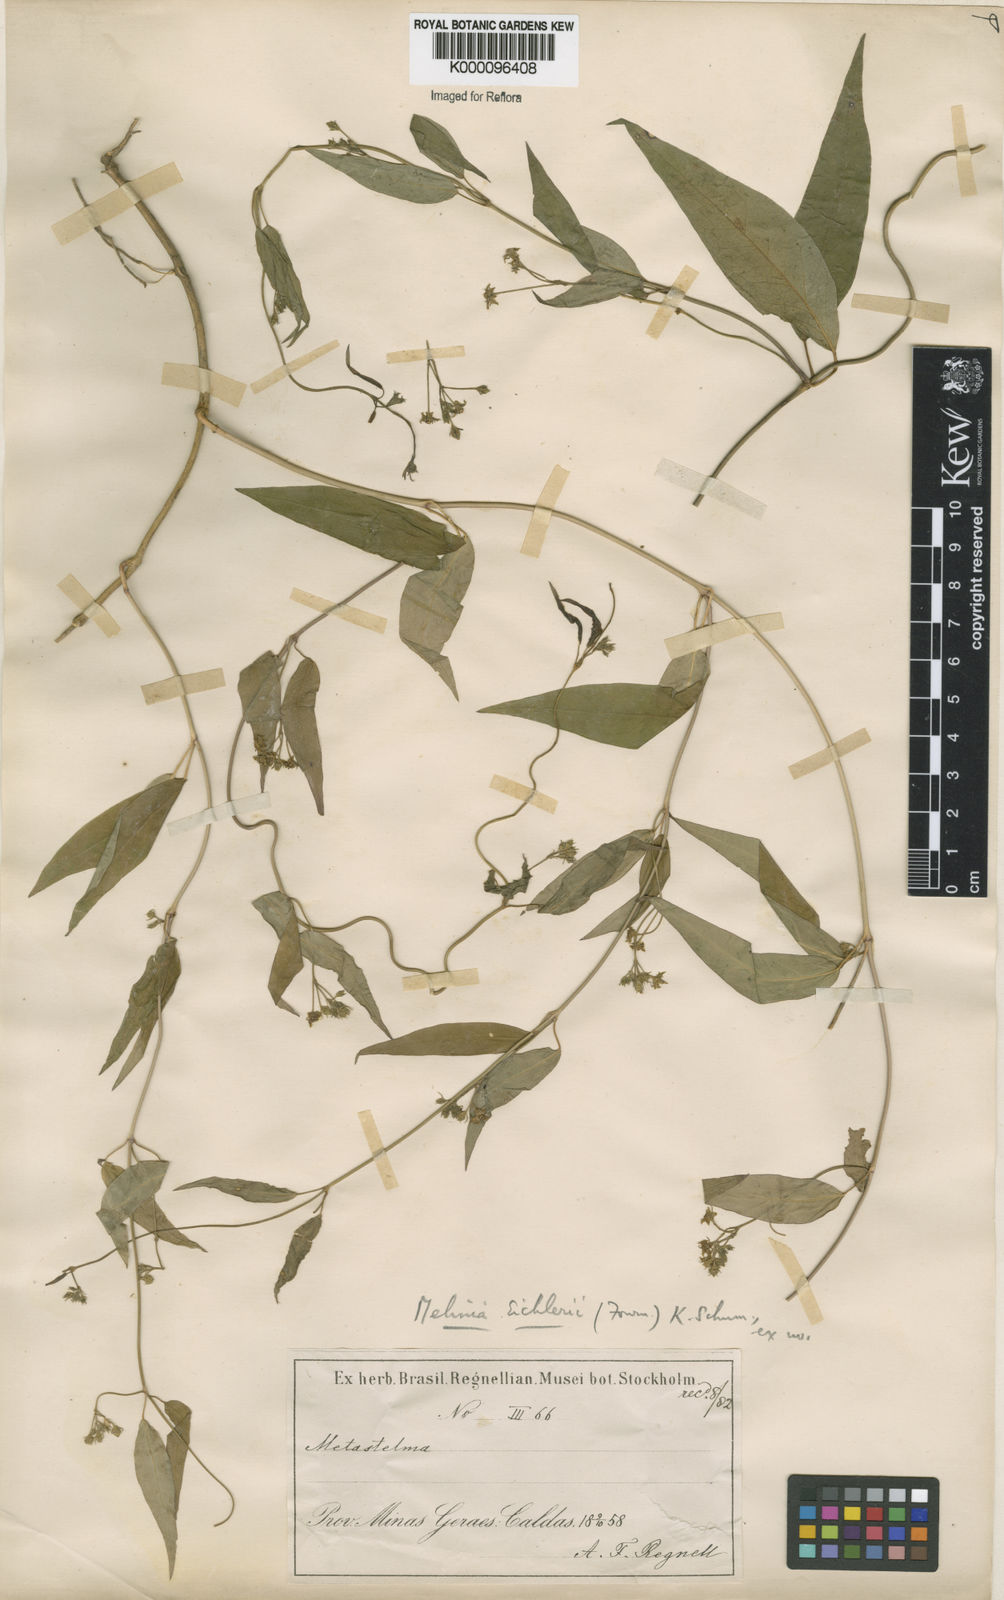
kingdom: Plantae
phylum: Tracheophyta
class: Magnoliopsida
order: Gentianales
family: Apocynaceae
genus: Kerbera
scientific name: Kerbera eichleri
